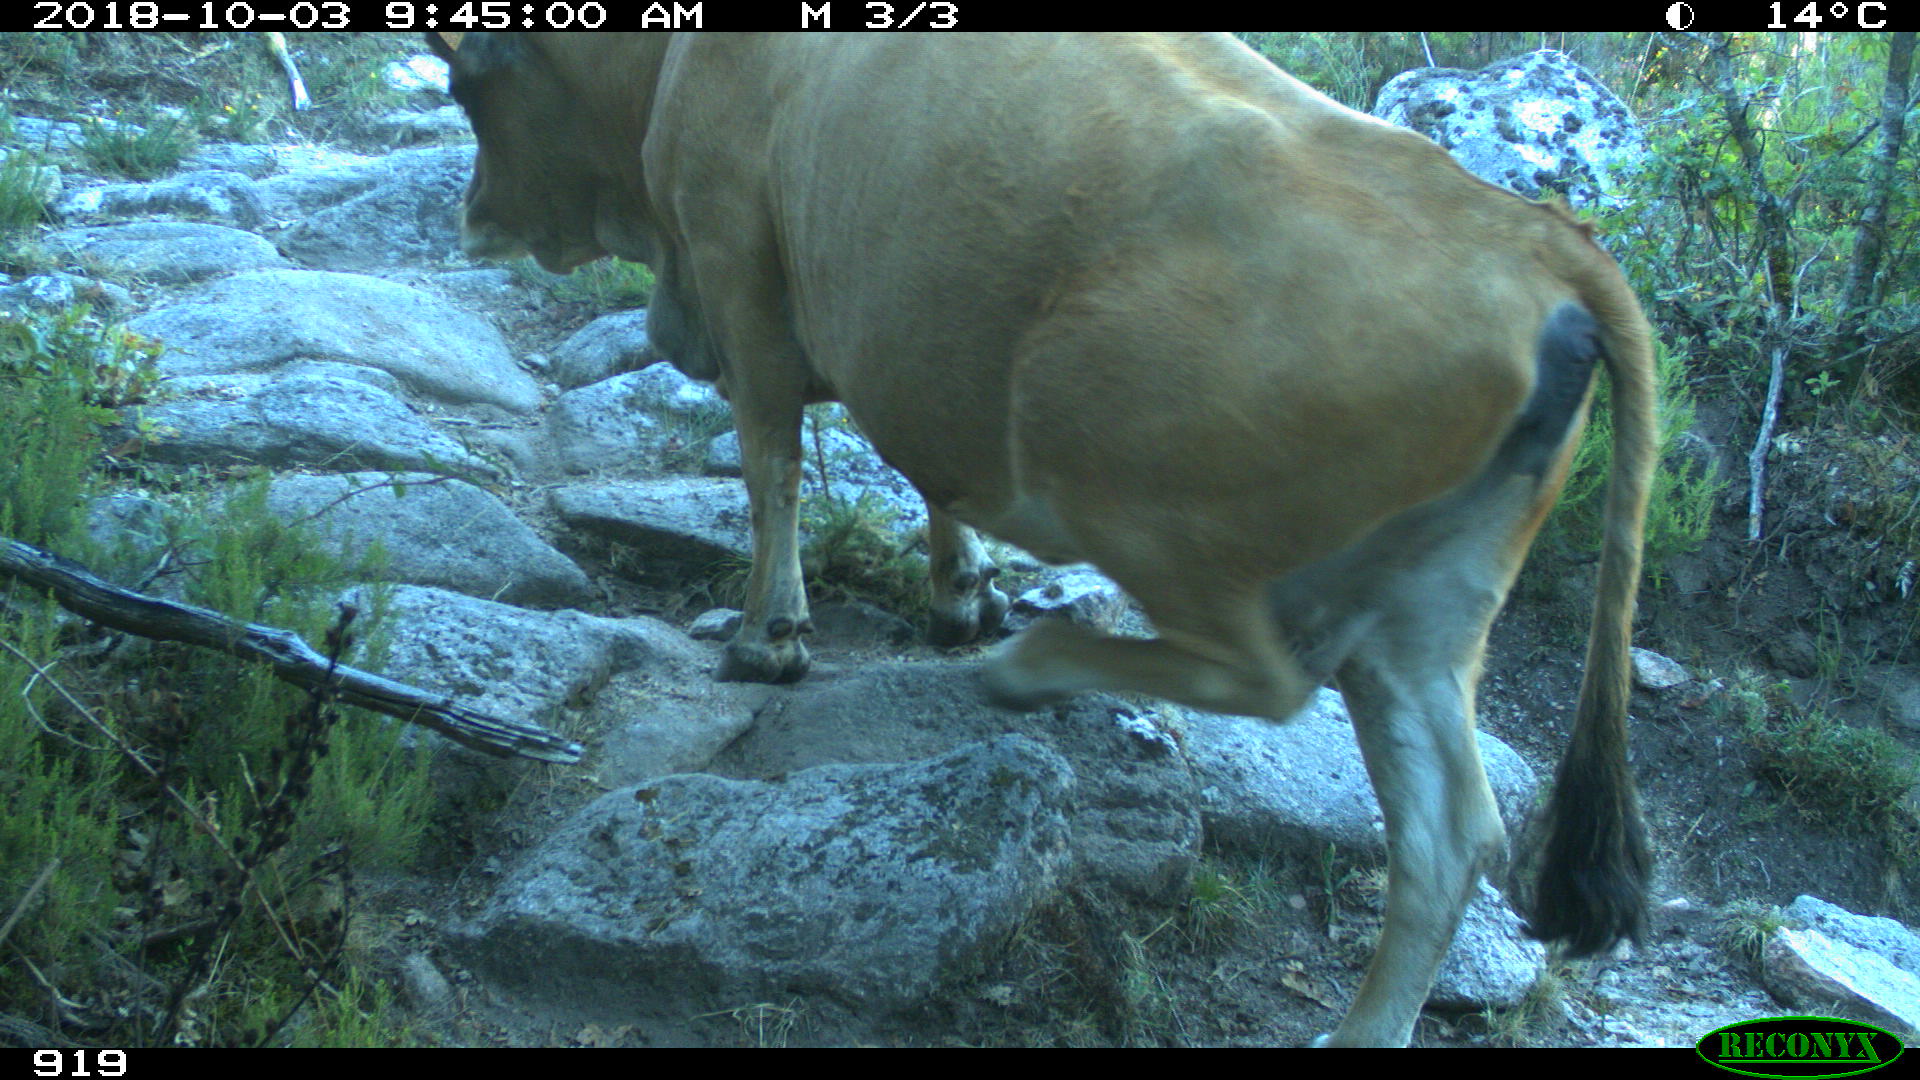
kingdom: Animalia
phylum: Chordata
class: Mammalia
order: Artiodactyla
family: Bovidae
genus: Bos
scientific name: Bos taurus
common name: Domesticated cattle
